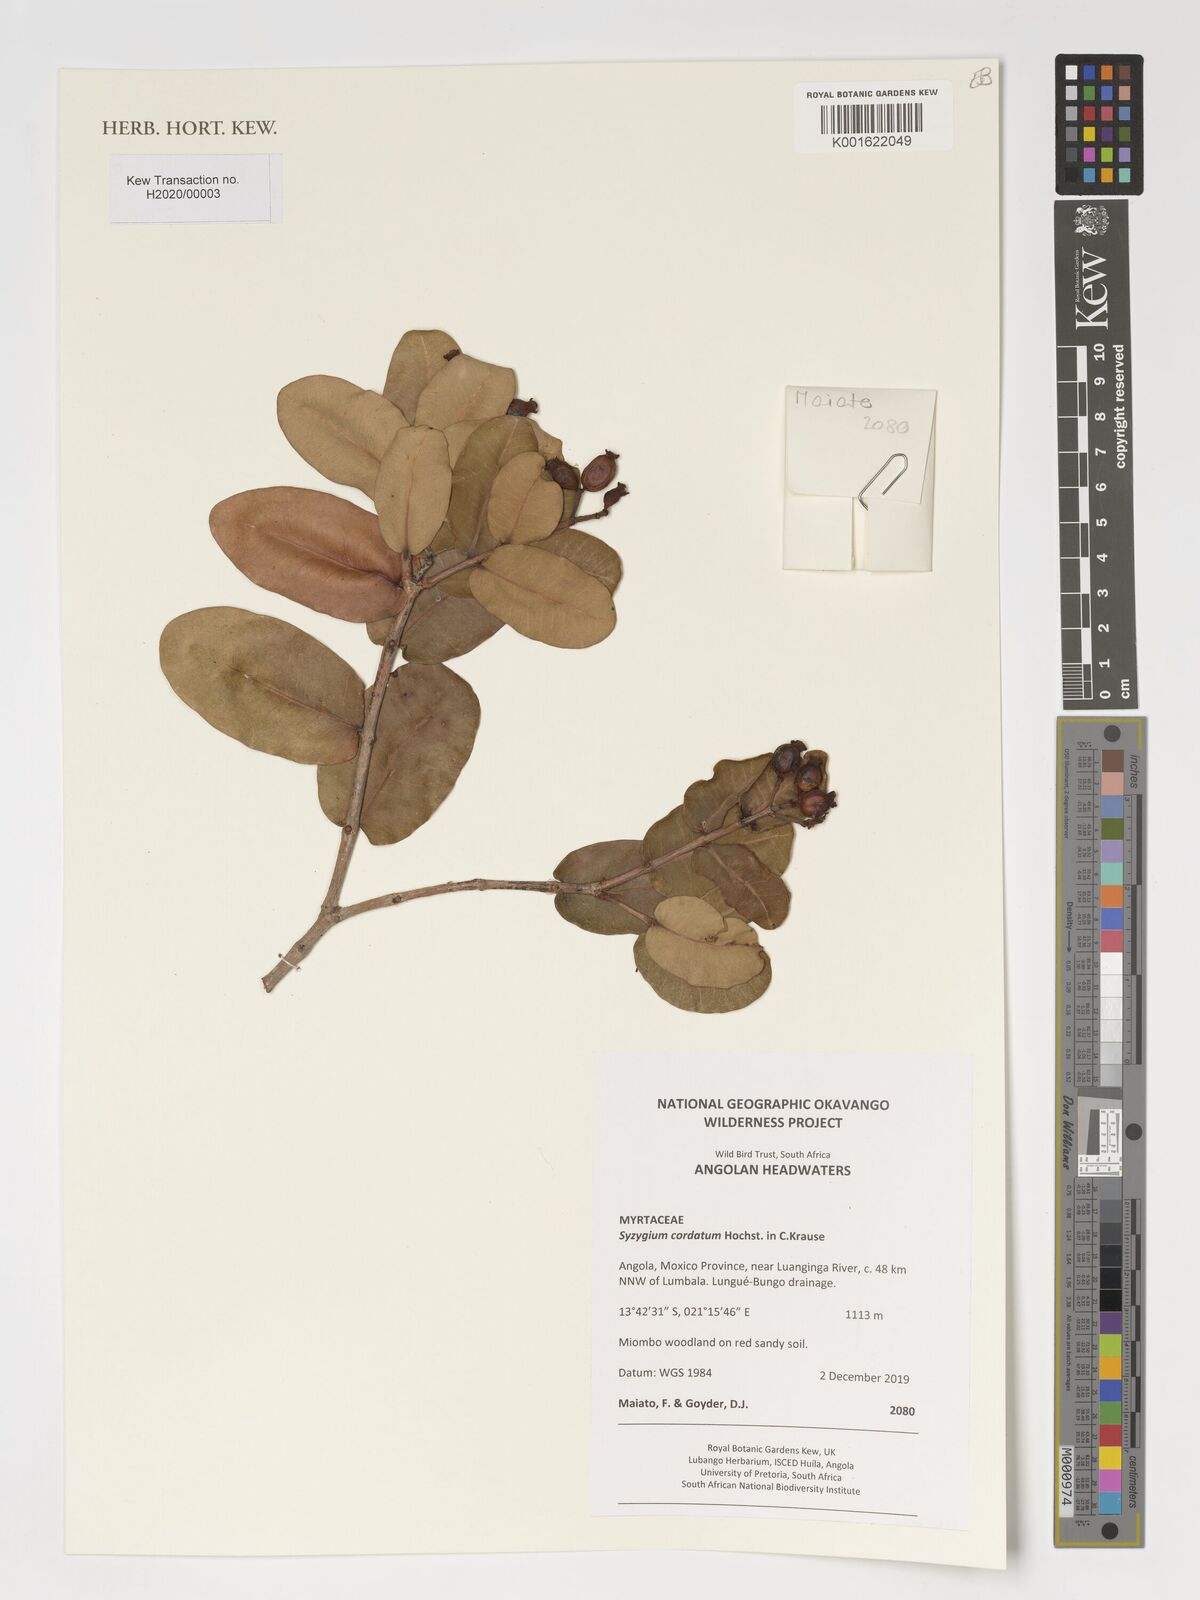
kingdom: Plantae
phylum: Tracheophyta
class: Magnoliopsida
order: Myrtales
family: Myrtaceae
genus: Syzygium
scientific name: Syzygium cordatum
